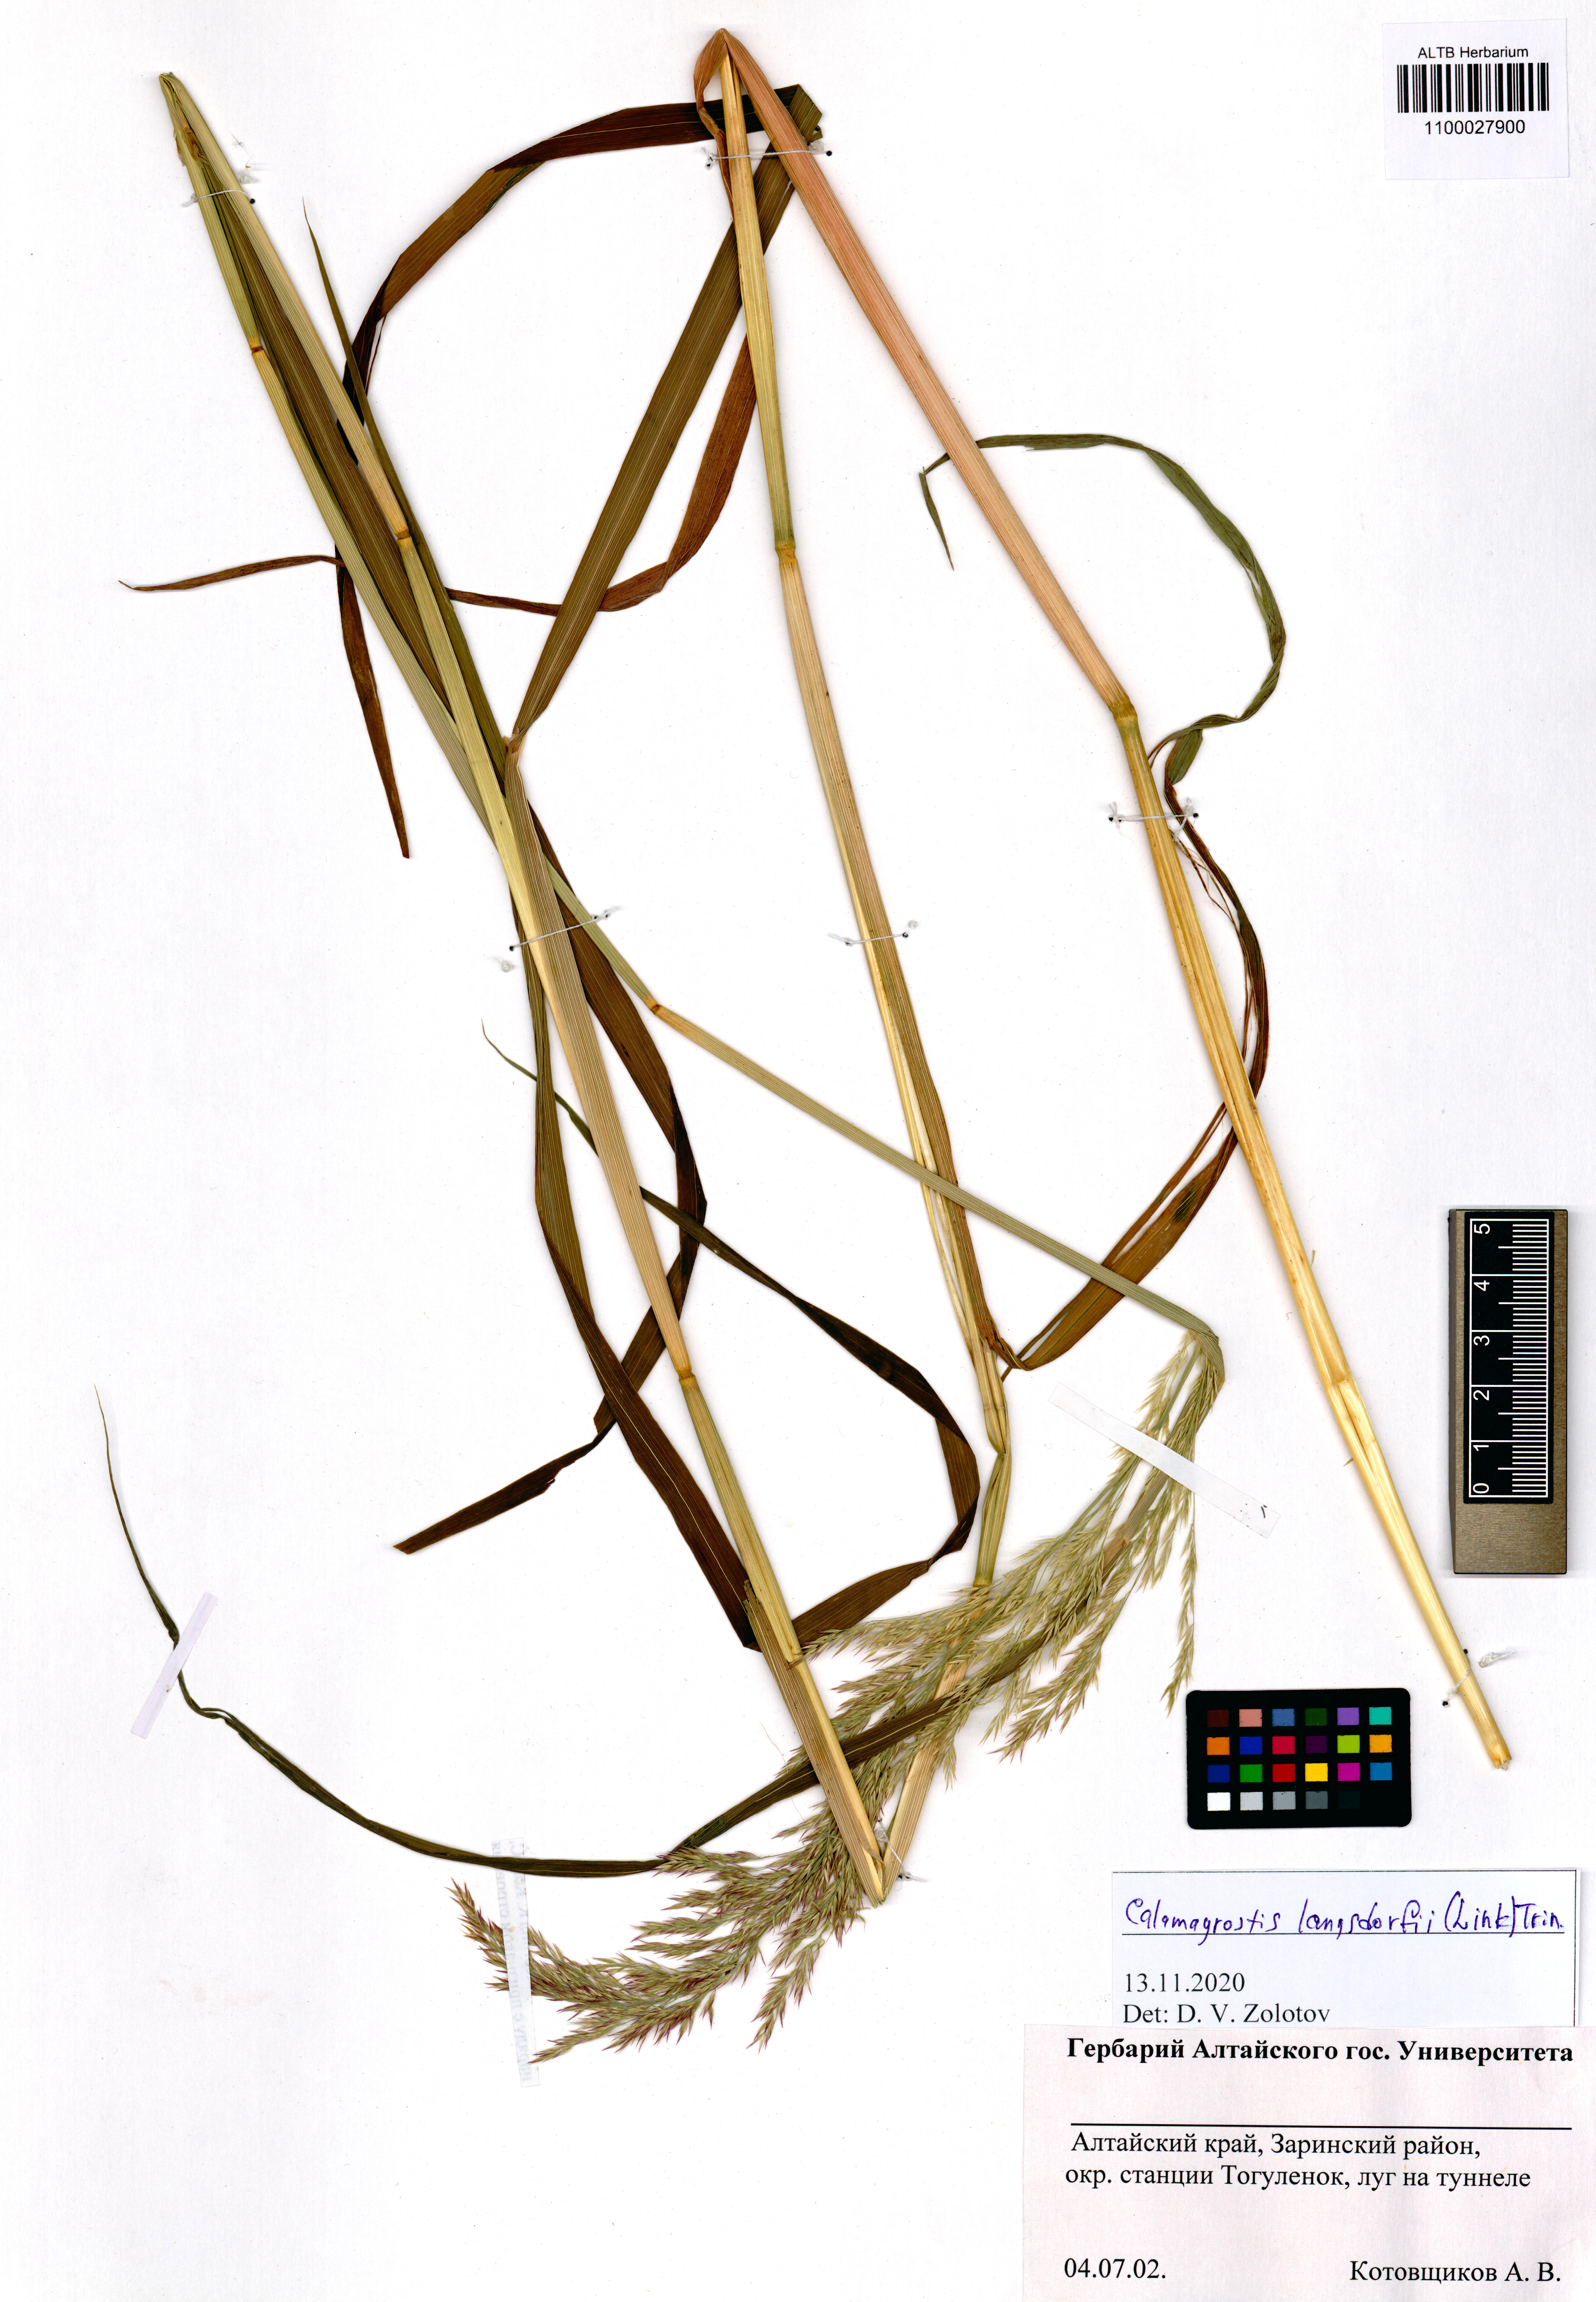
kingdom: Plantae
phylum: Tracheophyta
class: Liliopsida
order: Poales
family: Poaceae
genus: Calamagrostis
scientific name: Calamagrostis purpurea
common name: Scandinavian small-reed
